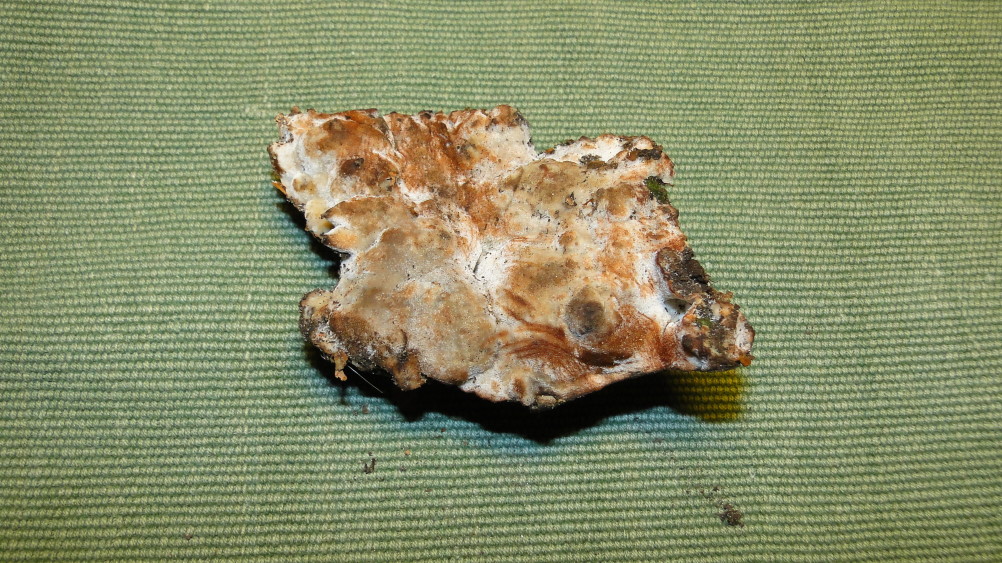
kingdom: Fungi
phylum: Basidiomycota
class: Agaricomycetes
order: Polyporales
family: Meripilaceae
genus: Rigidoporus
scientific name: Rigidoporus sanguinolentus
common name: blod-skorpeporesvamp
